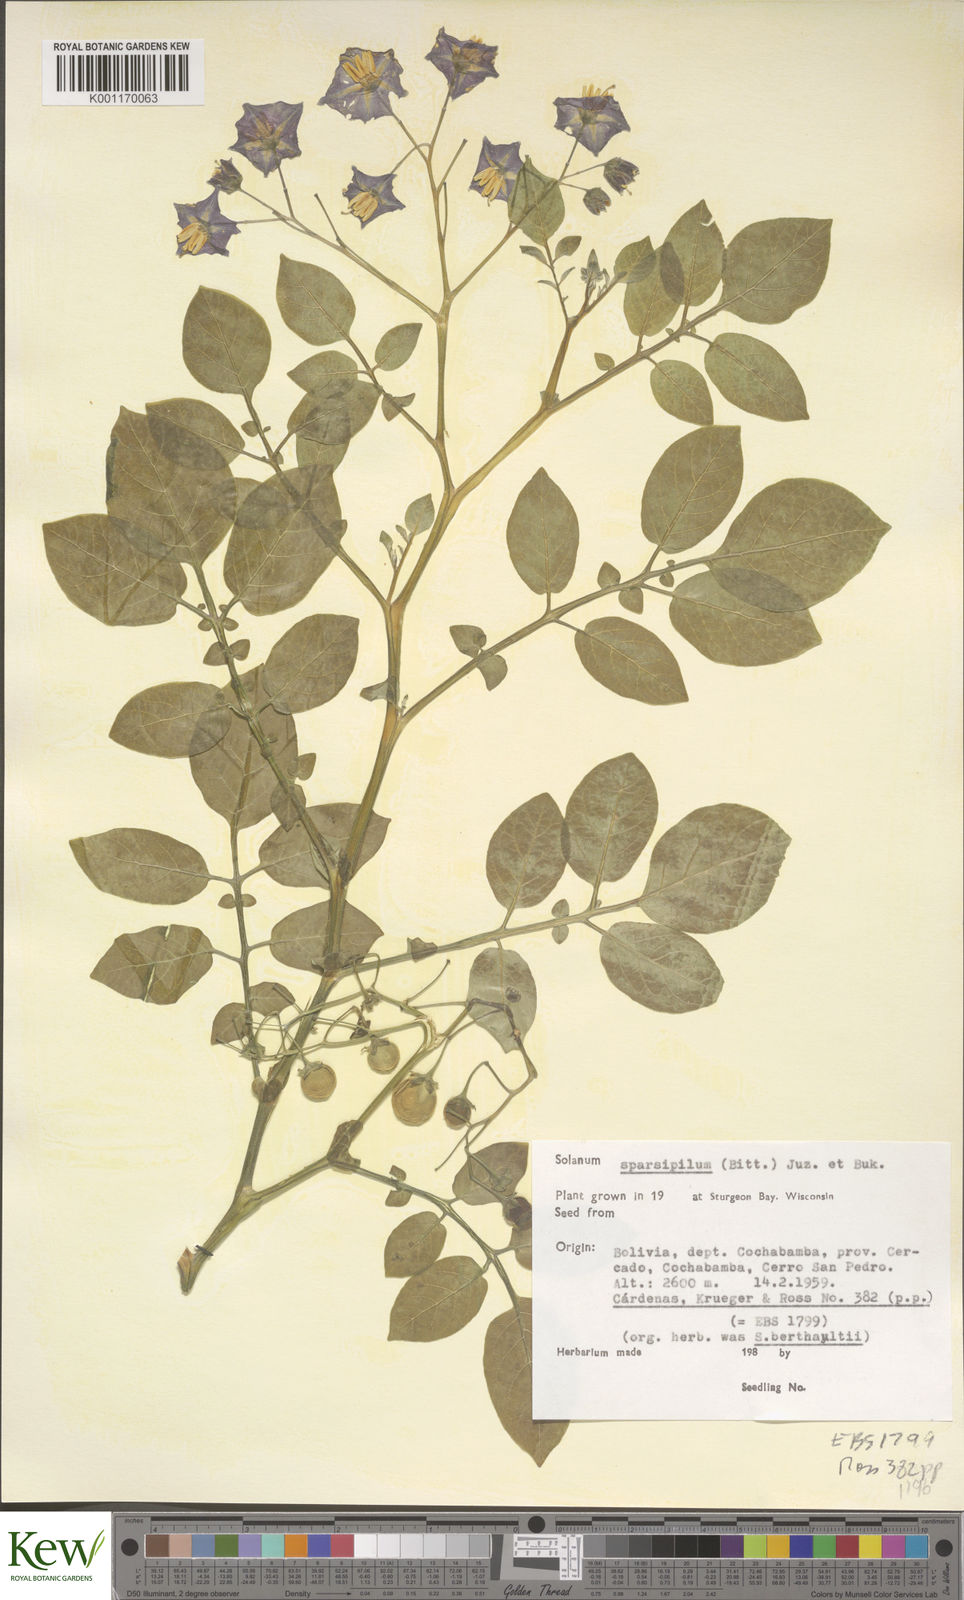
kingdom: Plantae
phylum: Tracheophyta
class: Magnoliopsida
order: Solanales
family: Solanaceae
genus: Solanum
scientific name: Solanum brevicaule
